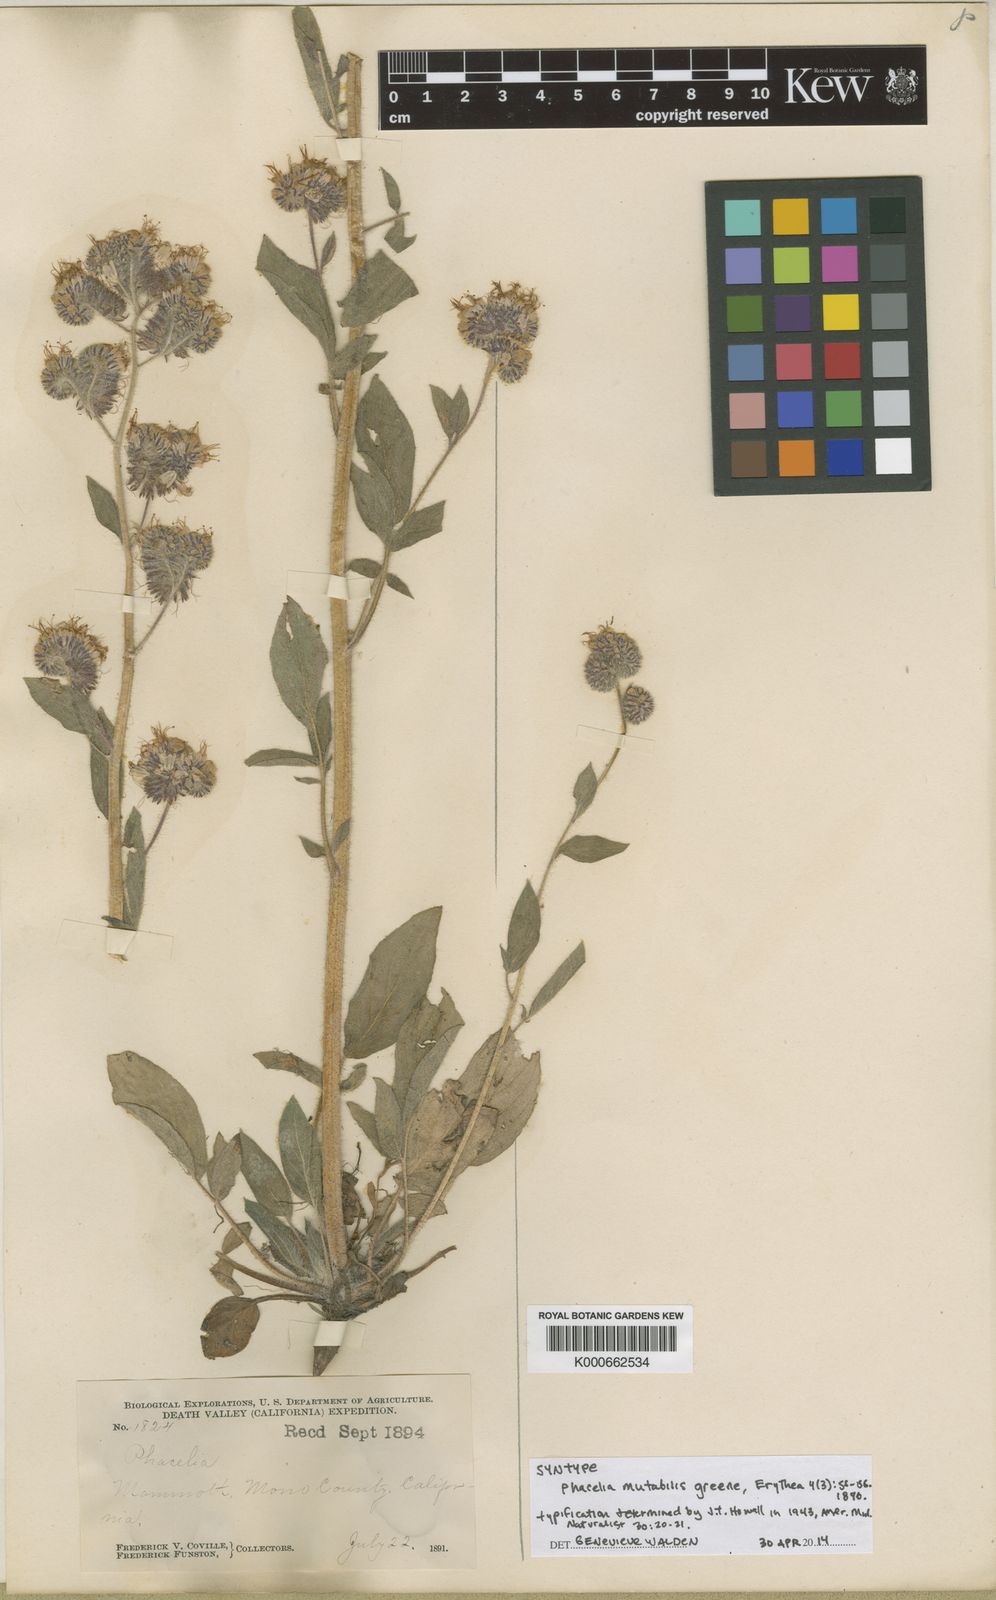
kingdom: Plantae
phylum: Tracheophyta
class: Magnoliopsida
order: Boraginales
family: Hydrophyllaceae
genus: Phacelia
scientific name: Phacelia mutabilis
